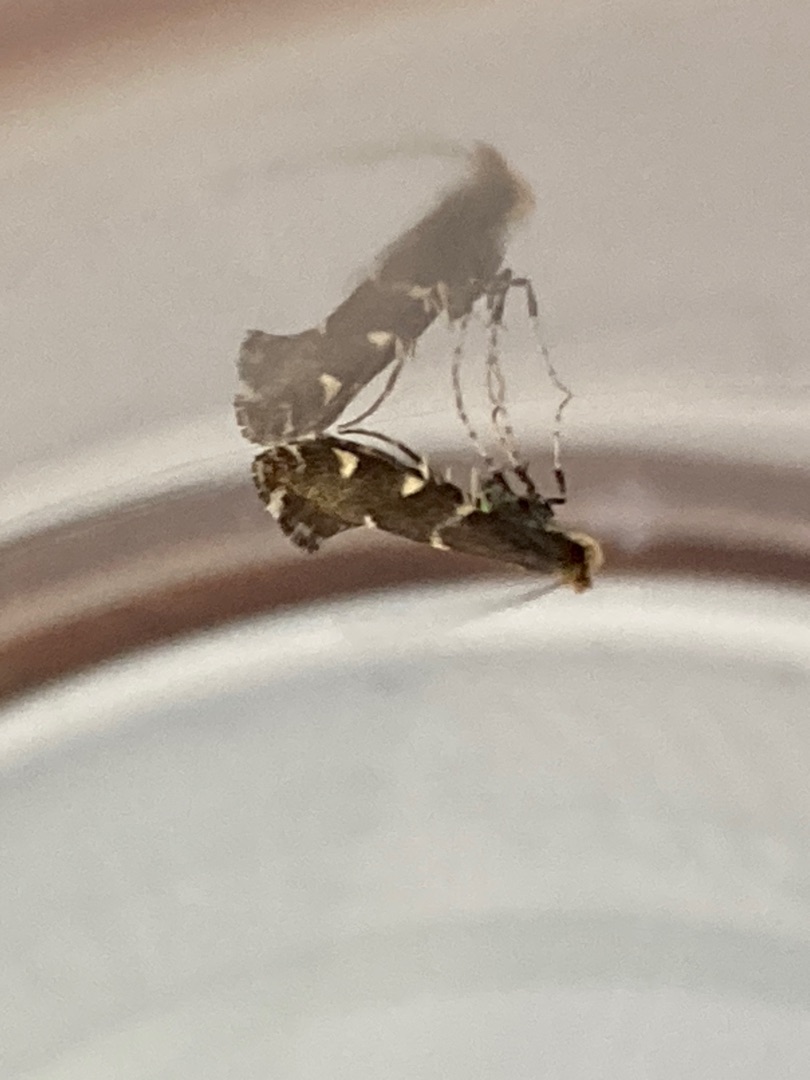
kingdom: Animalia
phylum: Arthropoda
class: Insecta
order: Lepidoptera
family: Gracillariidae
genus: Callisto
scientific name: Callisto denticulella
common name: Æblebladkantmøl
